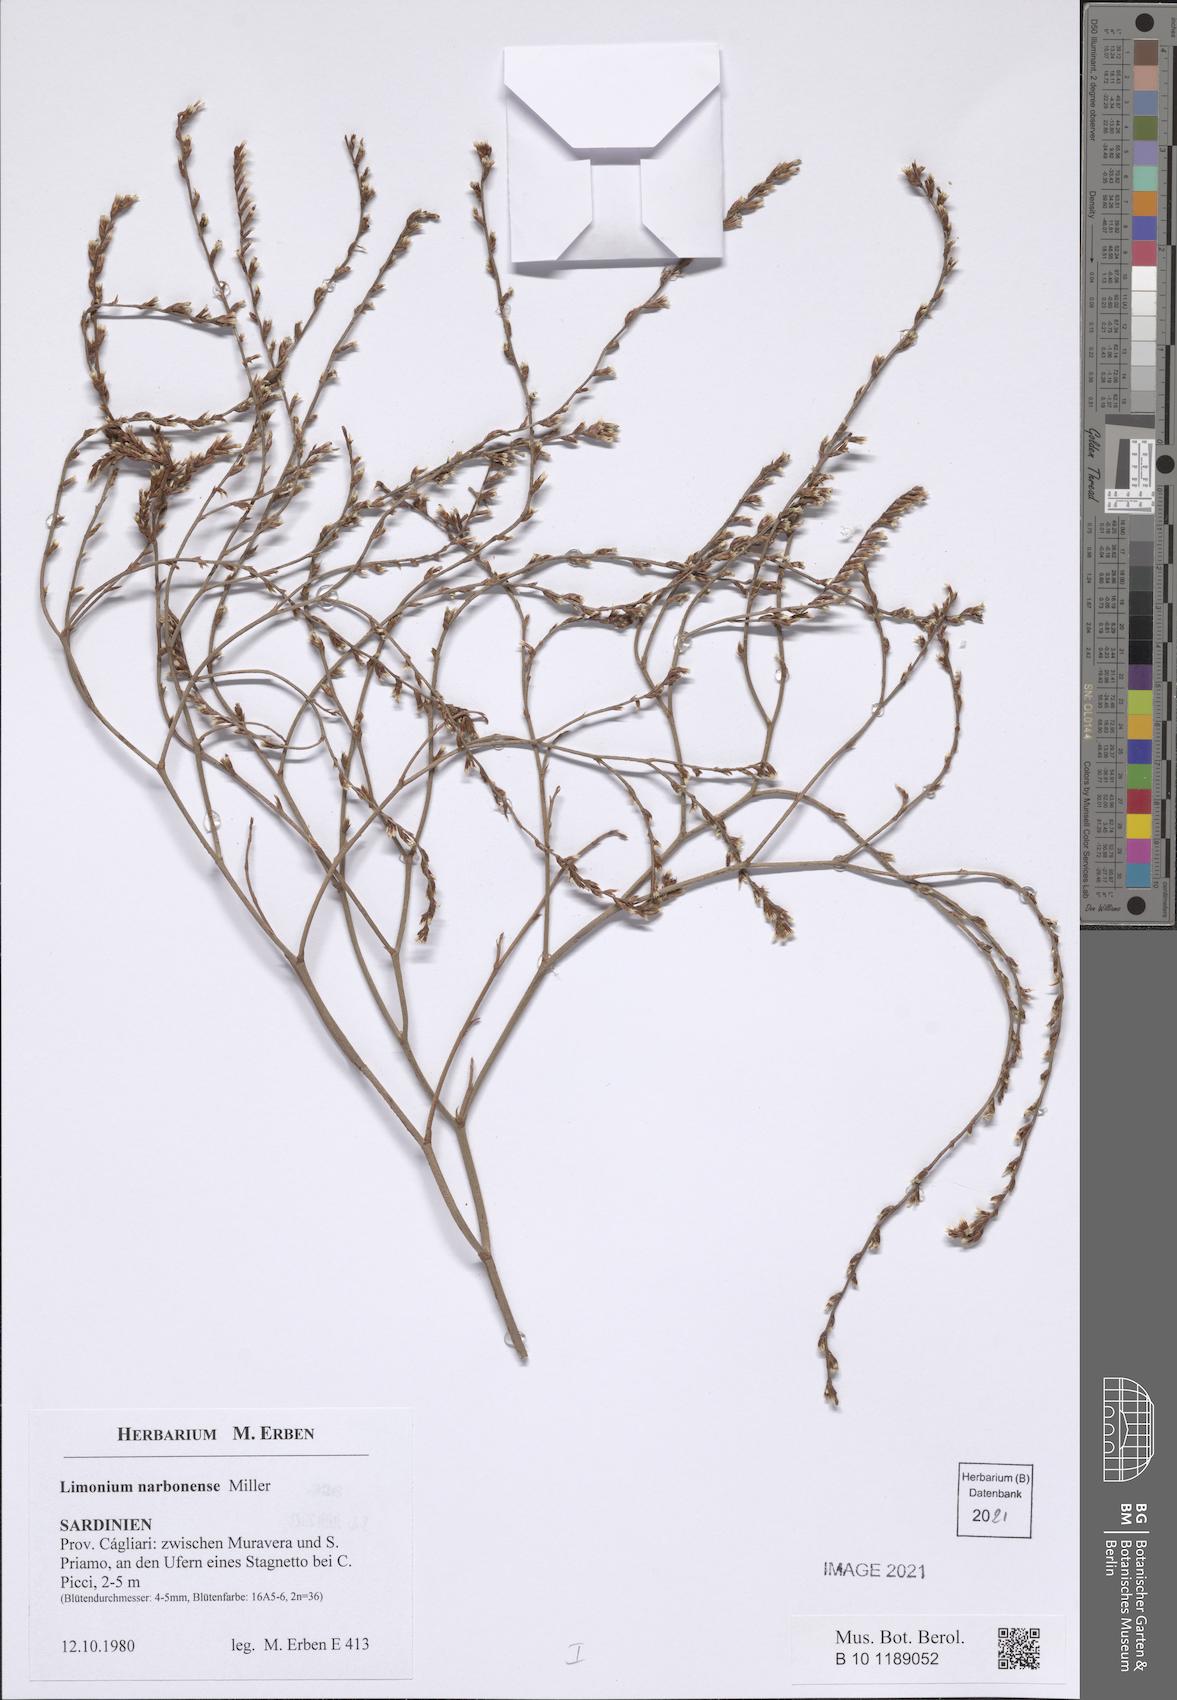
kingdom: Plantae
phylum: Tracheophyta
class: Magnoliopsida
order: Caryophyllales
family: Plumbaginaceae
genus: Limonium
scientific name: Limonium narbonense
